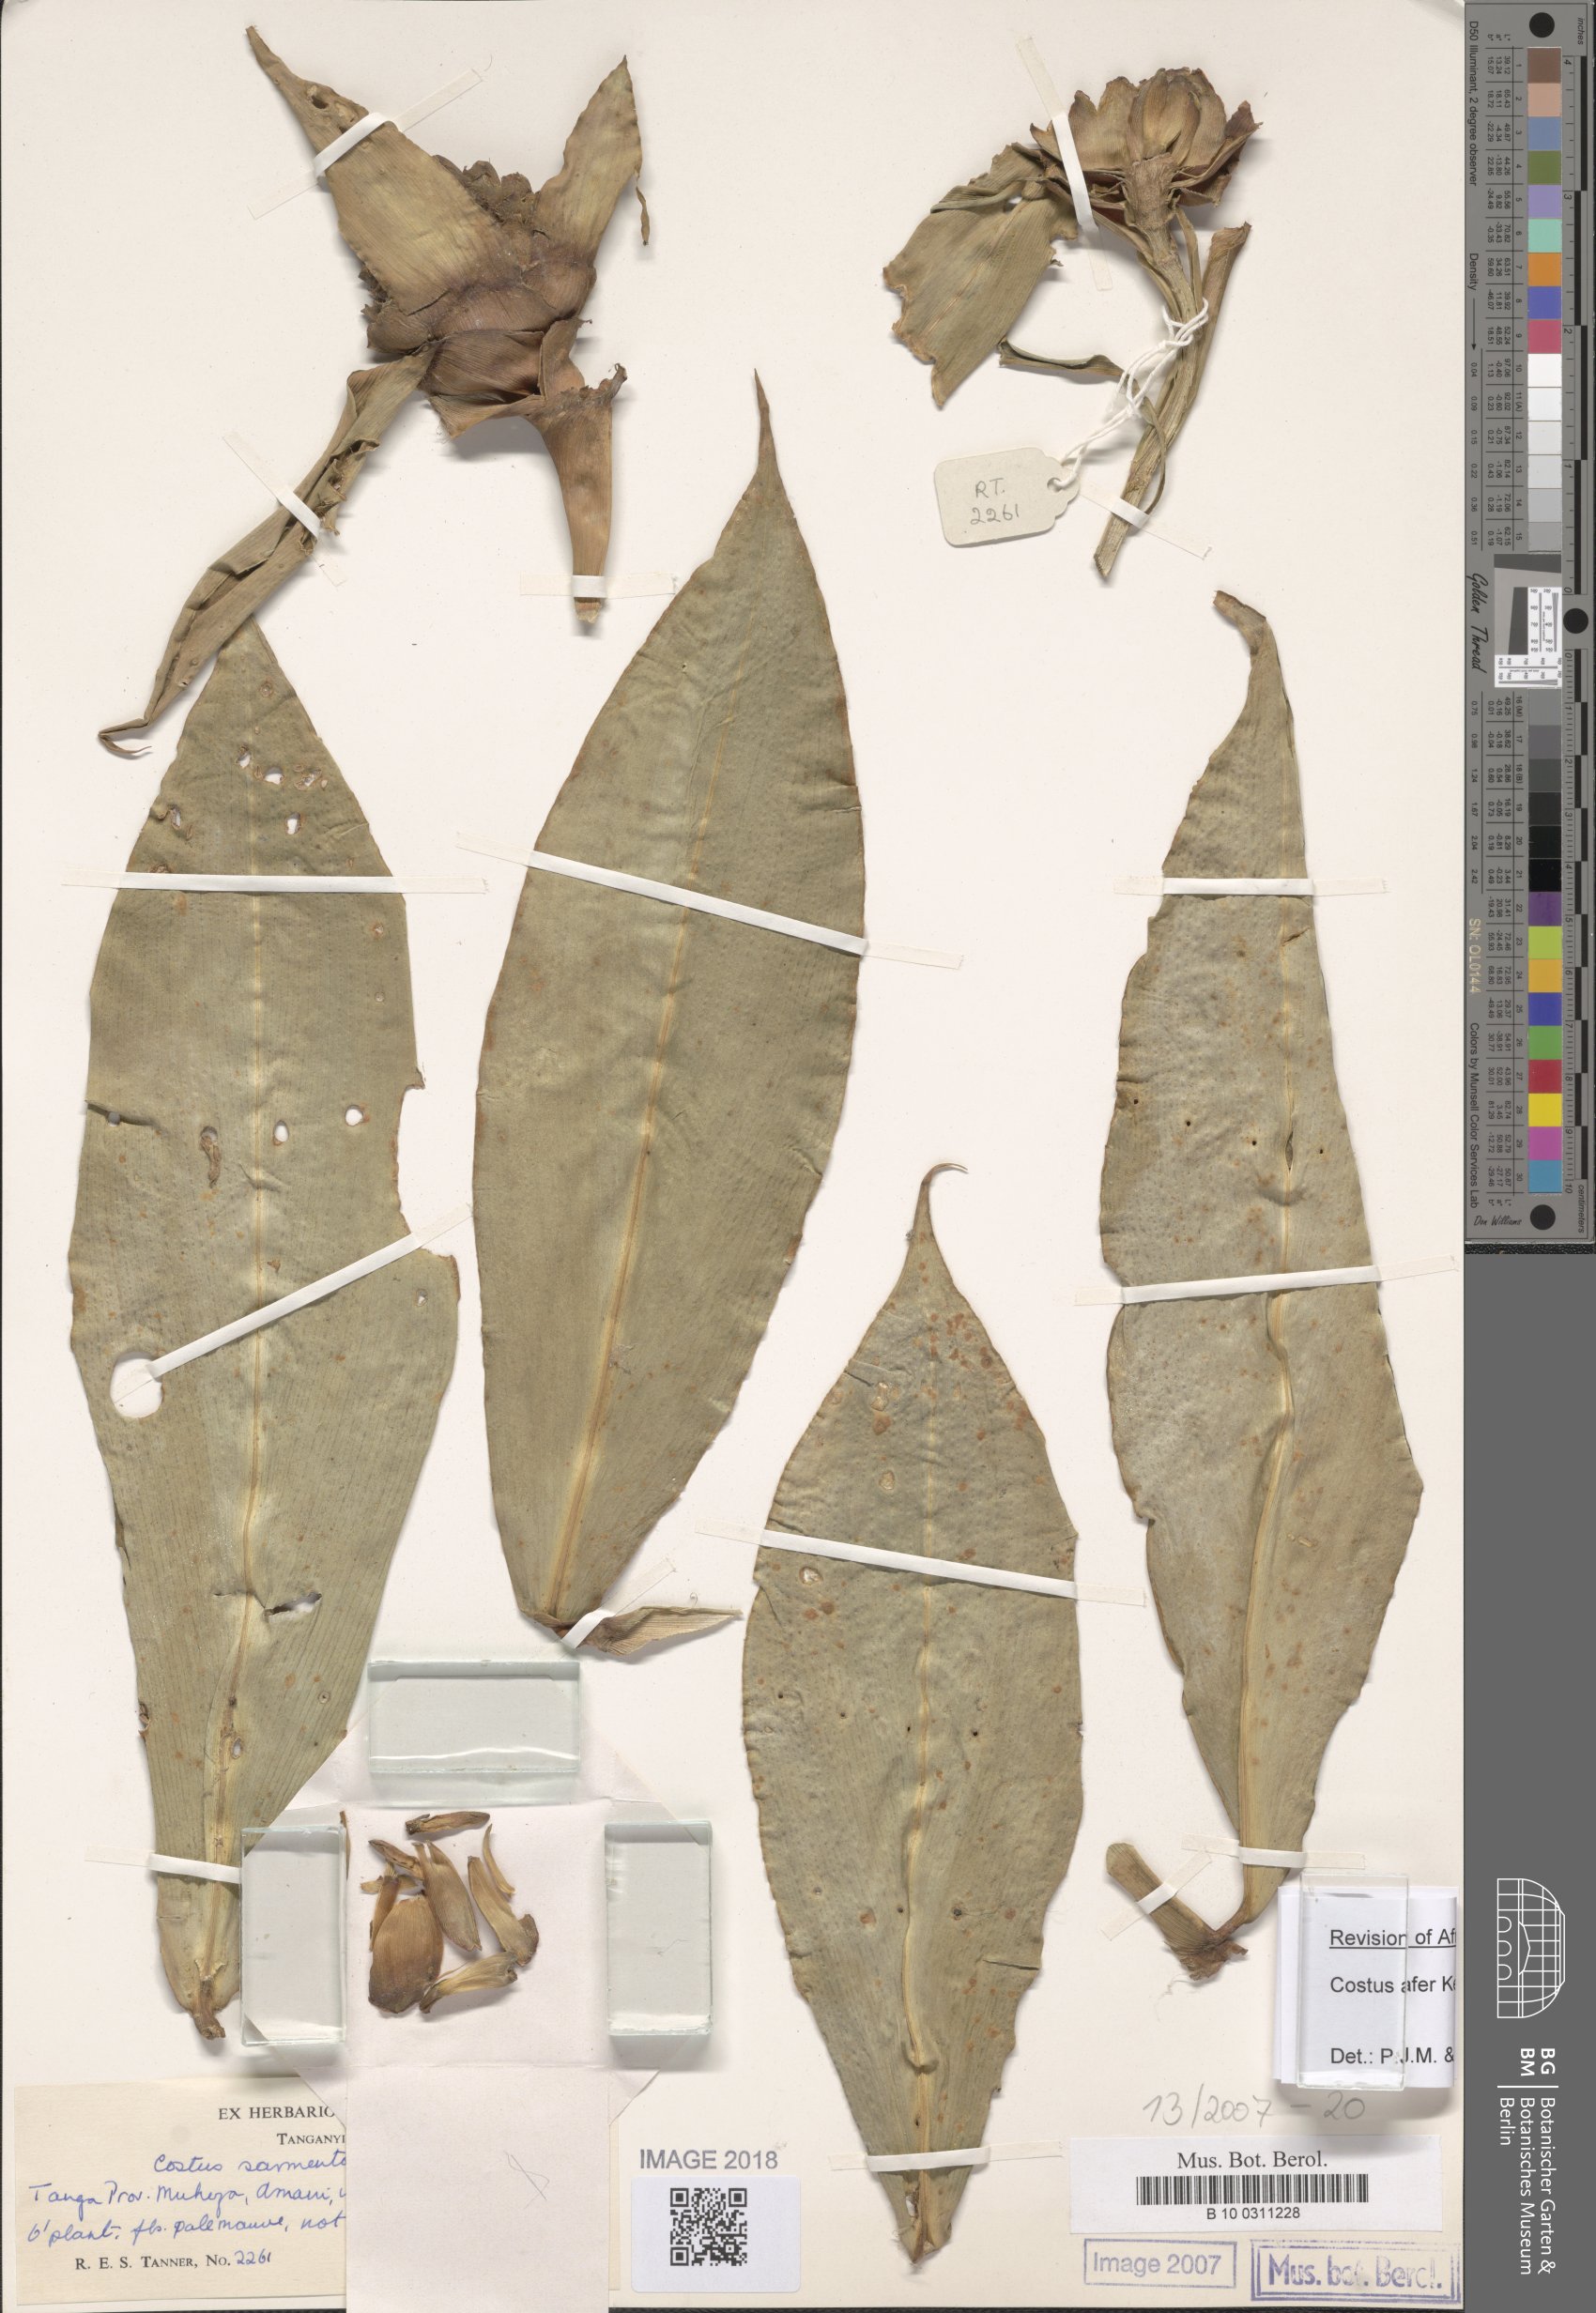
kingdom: Plantae
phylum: Tracheophyta
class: Liliopsida
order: Zingiberales
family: Costaceae
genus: Costus
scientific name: Costus afer
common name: Spiral-ginger
